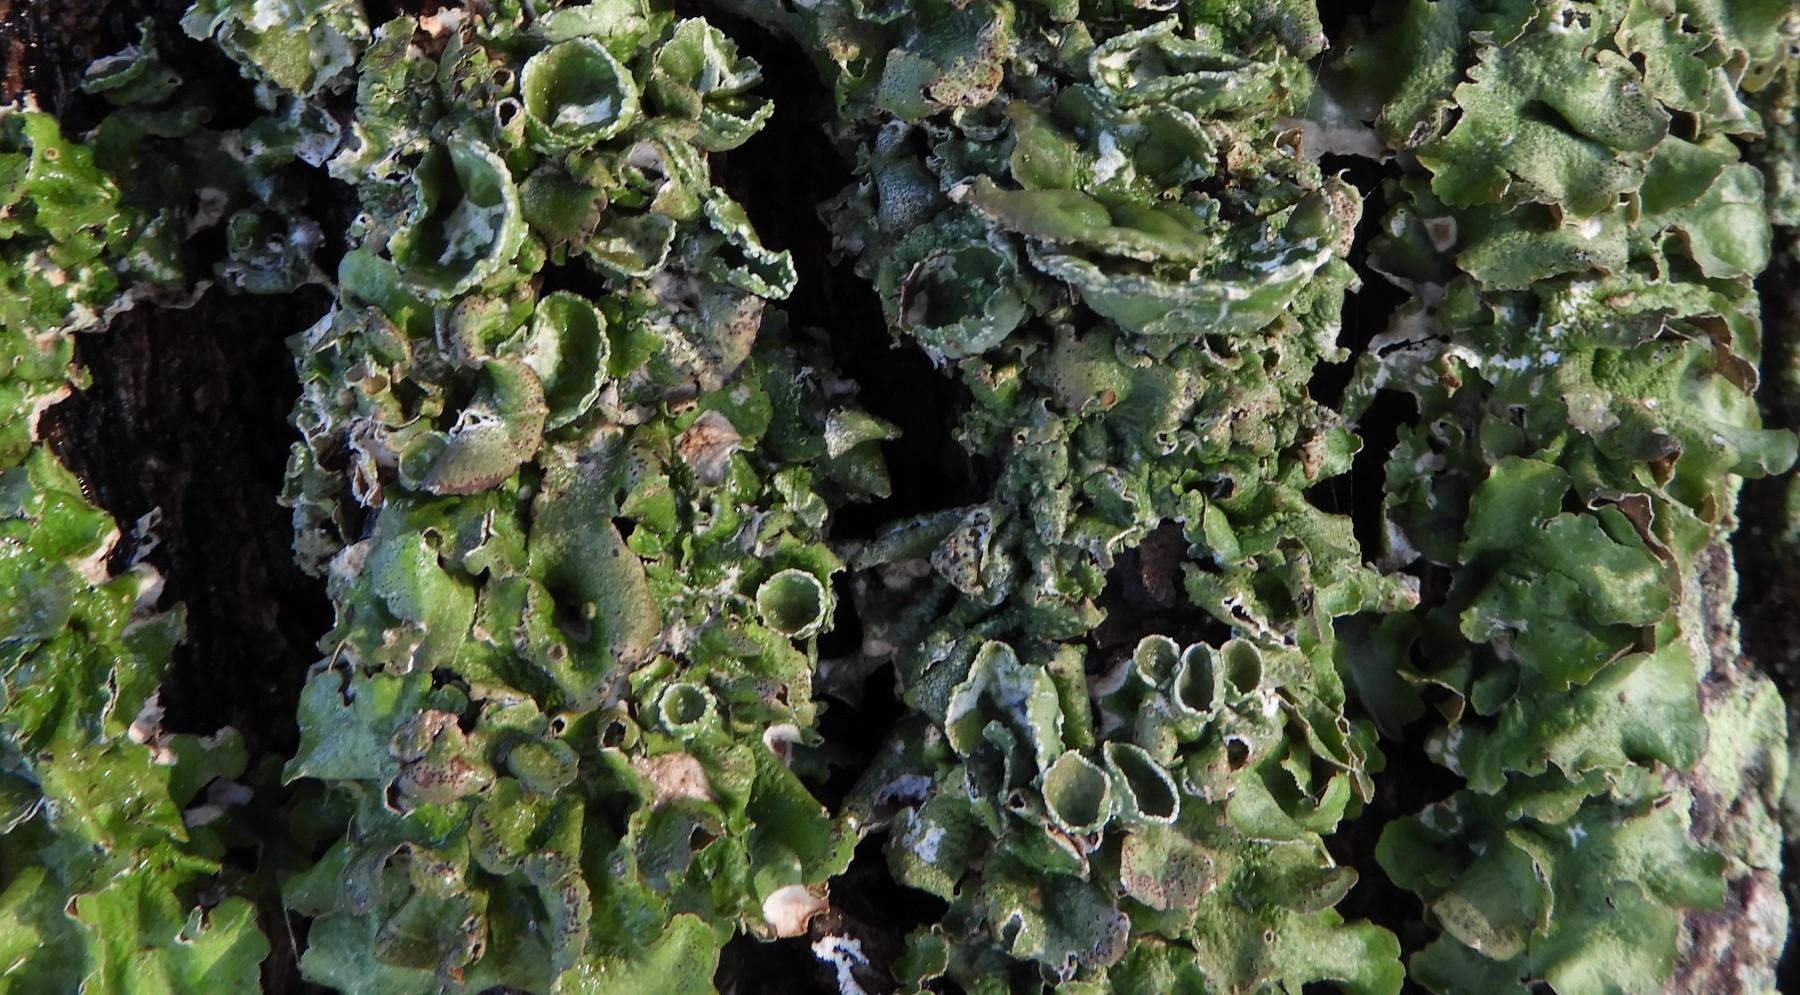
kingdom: Fungi
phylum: Ascomycota
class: Lecanoromycetes
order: Lecanorales
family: Parmeliaceae
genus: Pleurosticta
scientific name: Pleurosticta acetabulum
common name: stor skållav
